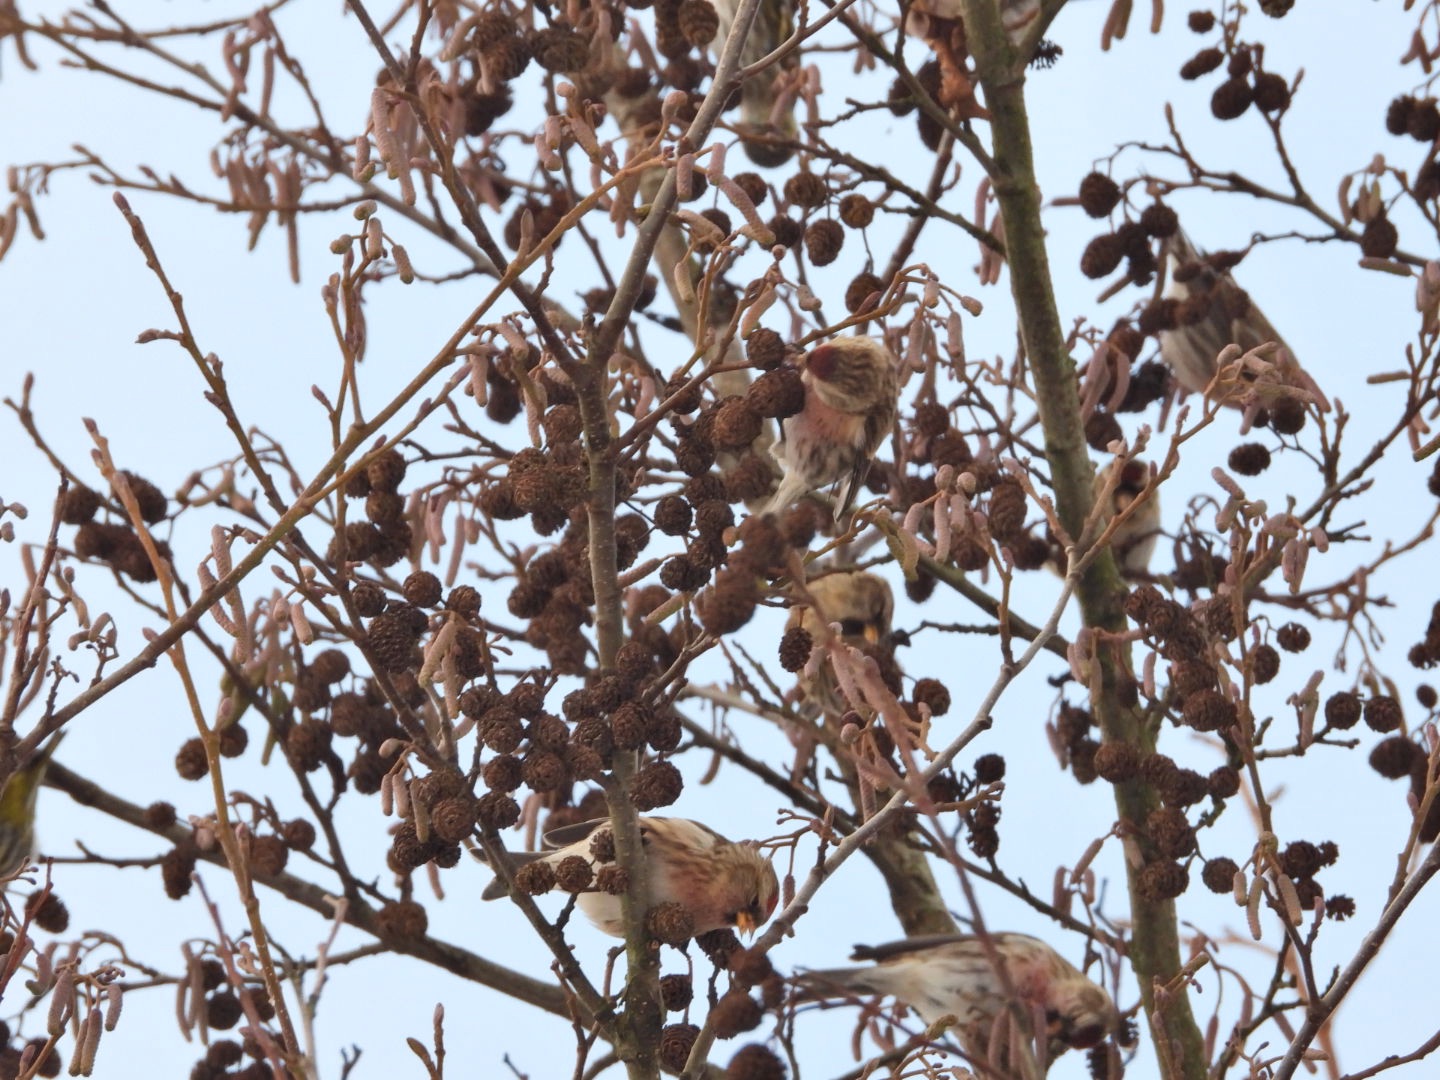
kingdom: Animalia
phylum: Chordata
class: Aves
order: Passeriformes
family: Fringillidae
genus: Acanthis
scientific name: Acanthis flammea
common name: Nordlig gråsisken
